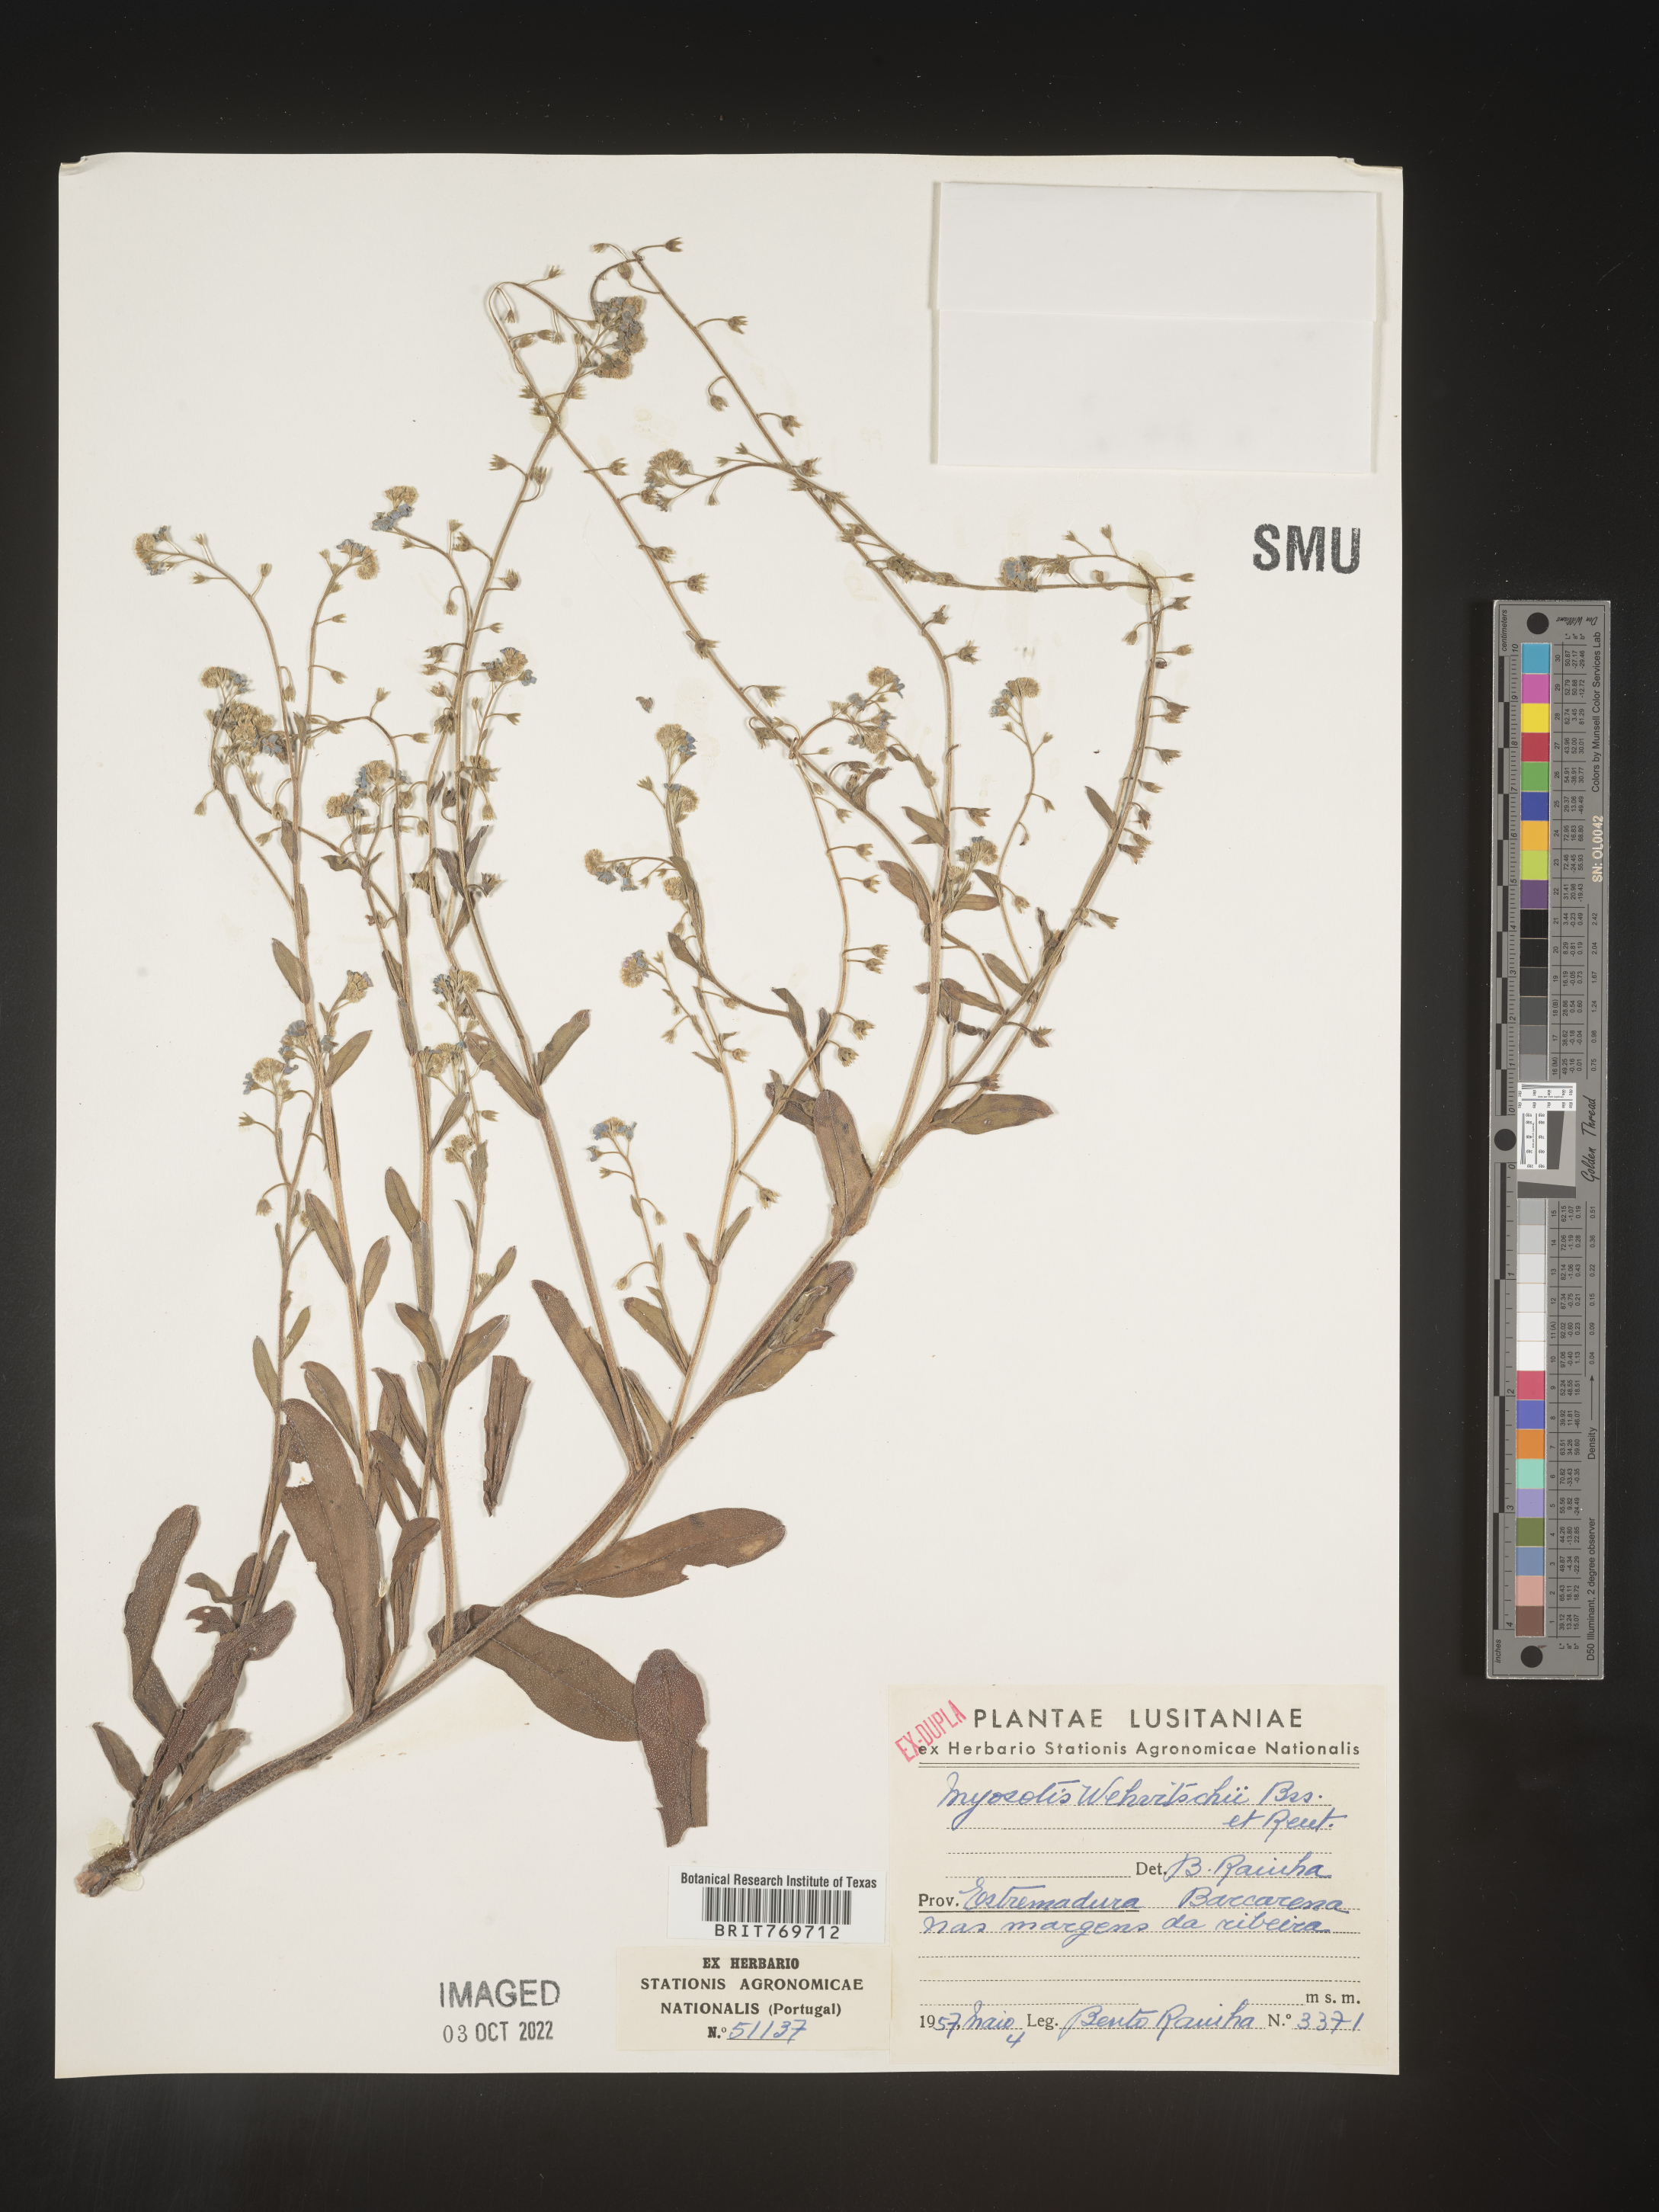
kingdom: Plantae
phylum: Tracheophyta
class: Magnoliopsida
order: Boraginales
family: Boraginaceae
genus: Myosotis
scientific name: Myosotis
